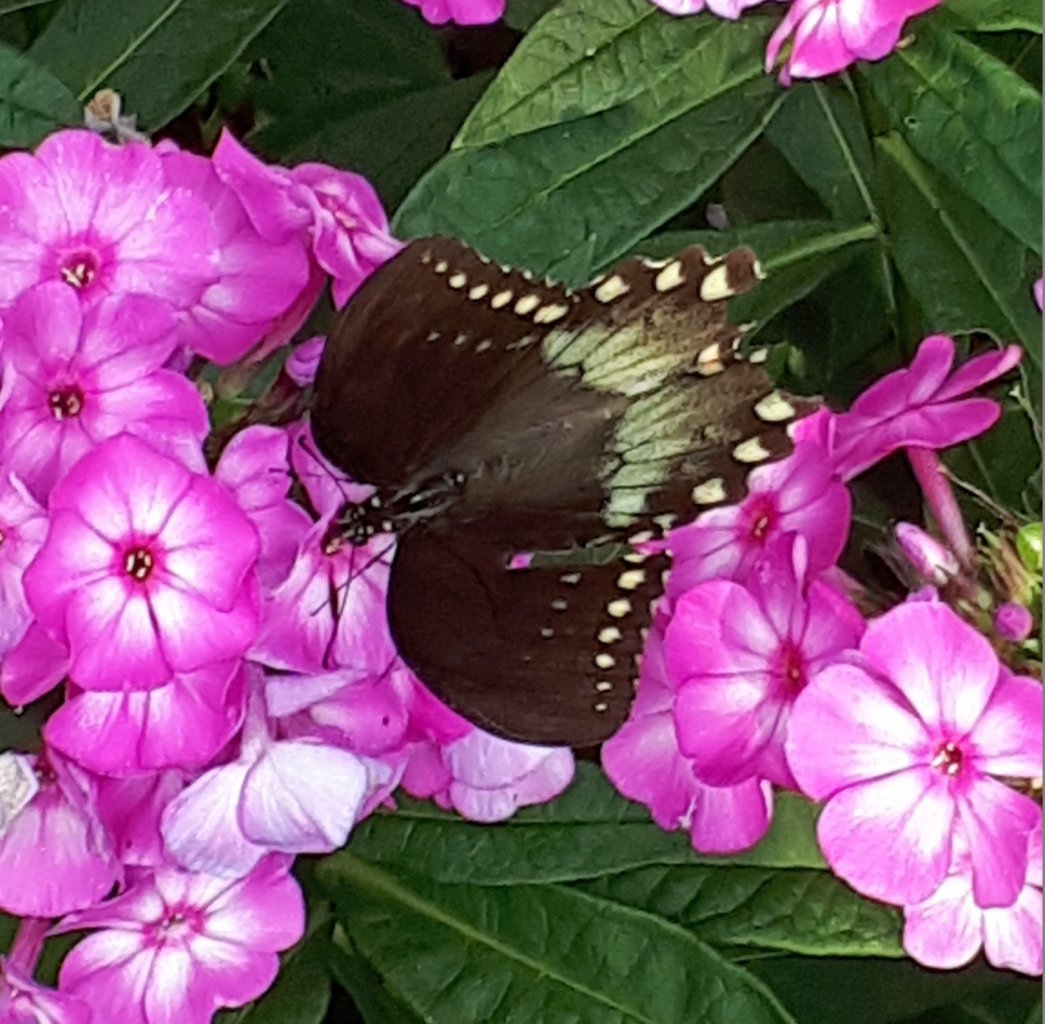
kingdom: Animalia
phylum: Arthropoda
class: Insecta
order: Lepidoptera
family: Papilionidae
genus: Pterourus
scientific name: Pterourus troilus
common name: Spicebush Swallowtail
